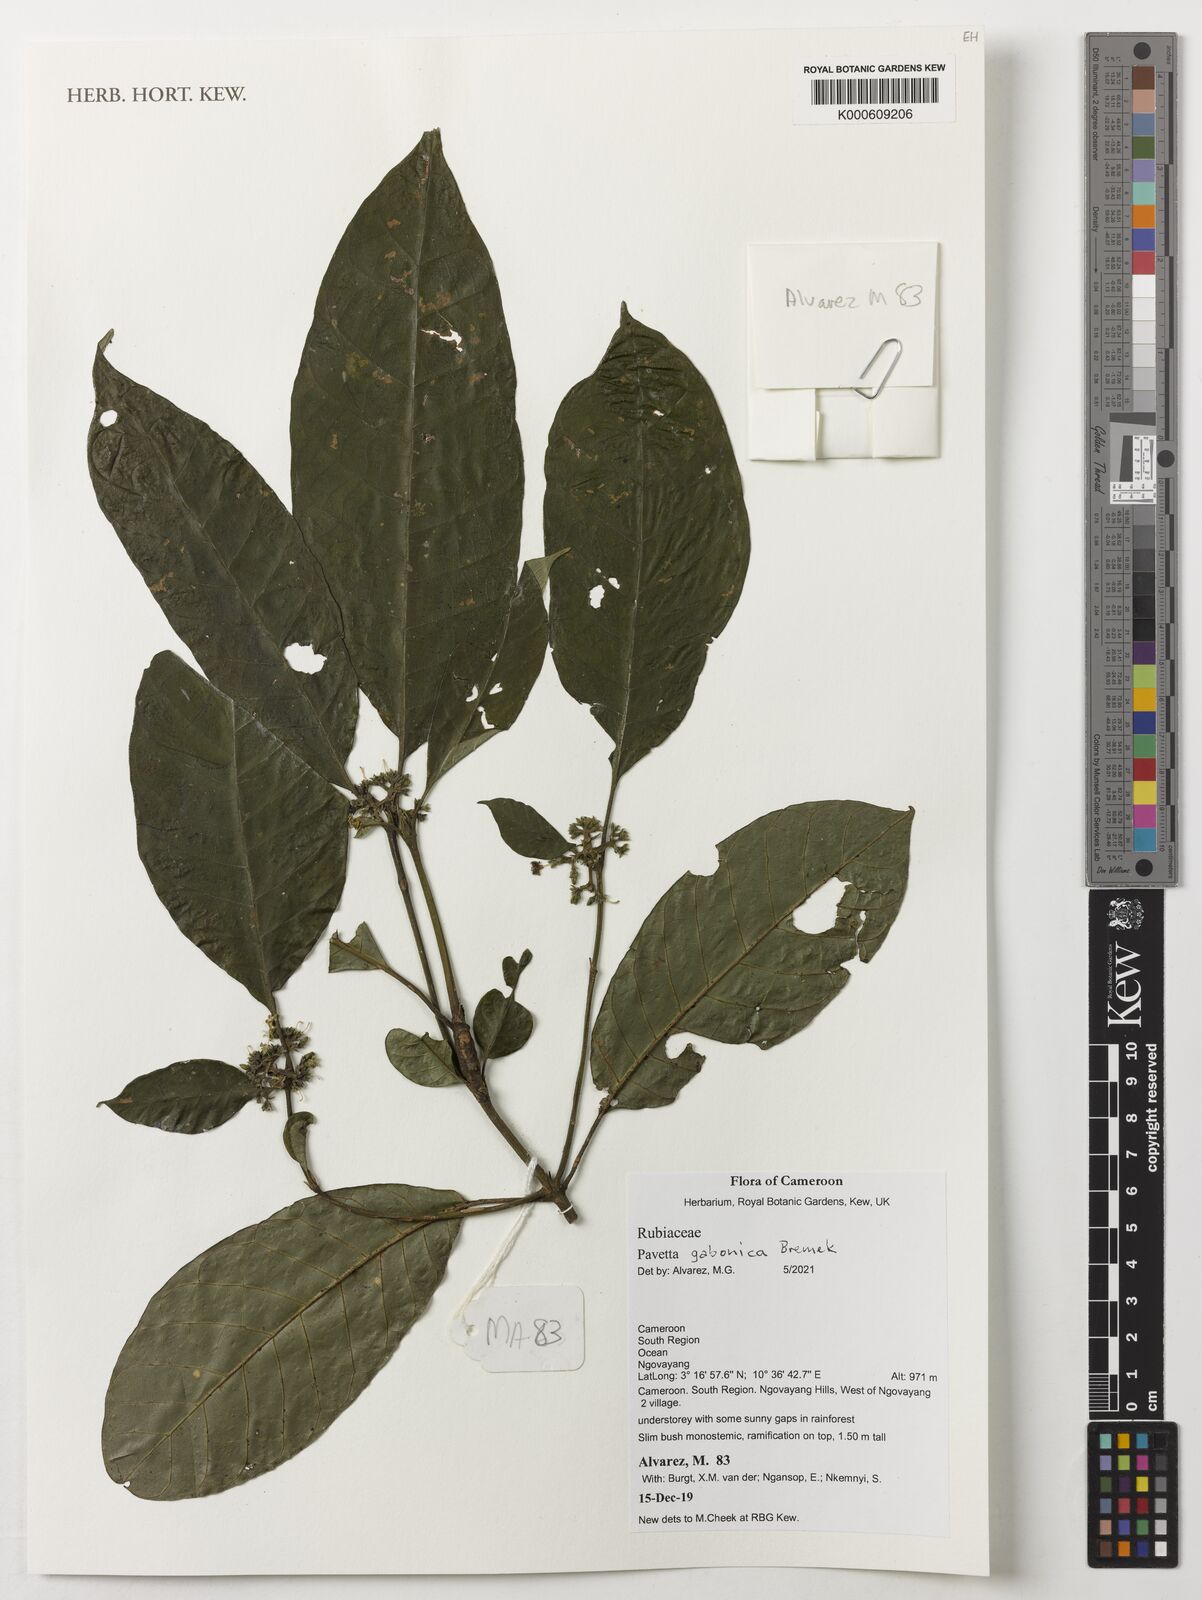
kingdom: Plantae
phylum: Tracheophyta
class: Magnoliopsida
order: Gentianales
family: Rubiaceae
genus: Pavetta
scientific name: Pavetta
